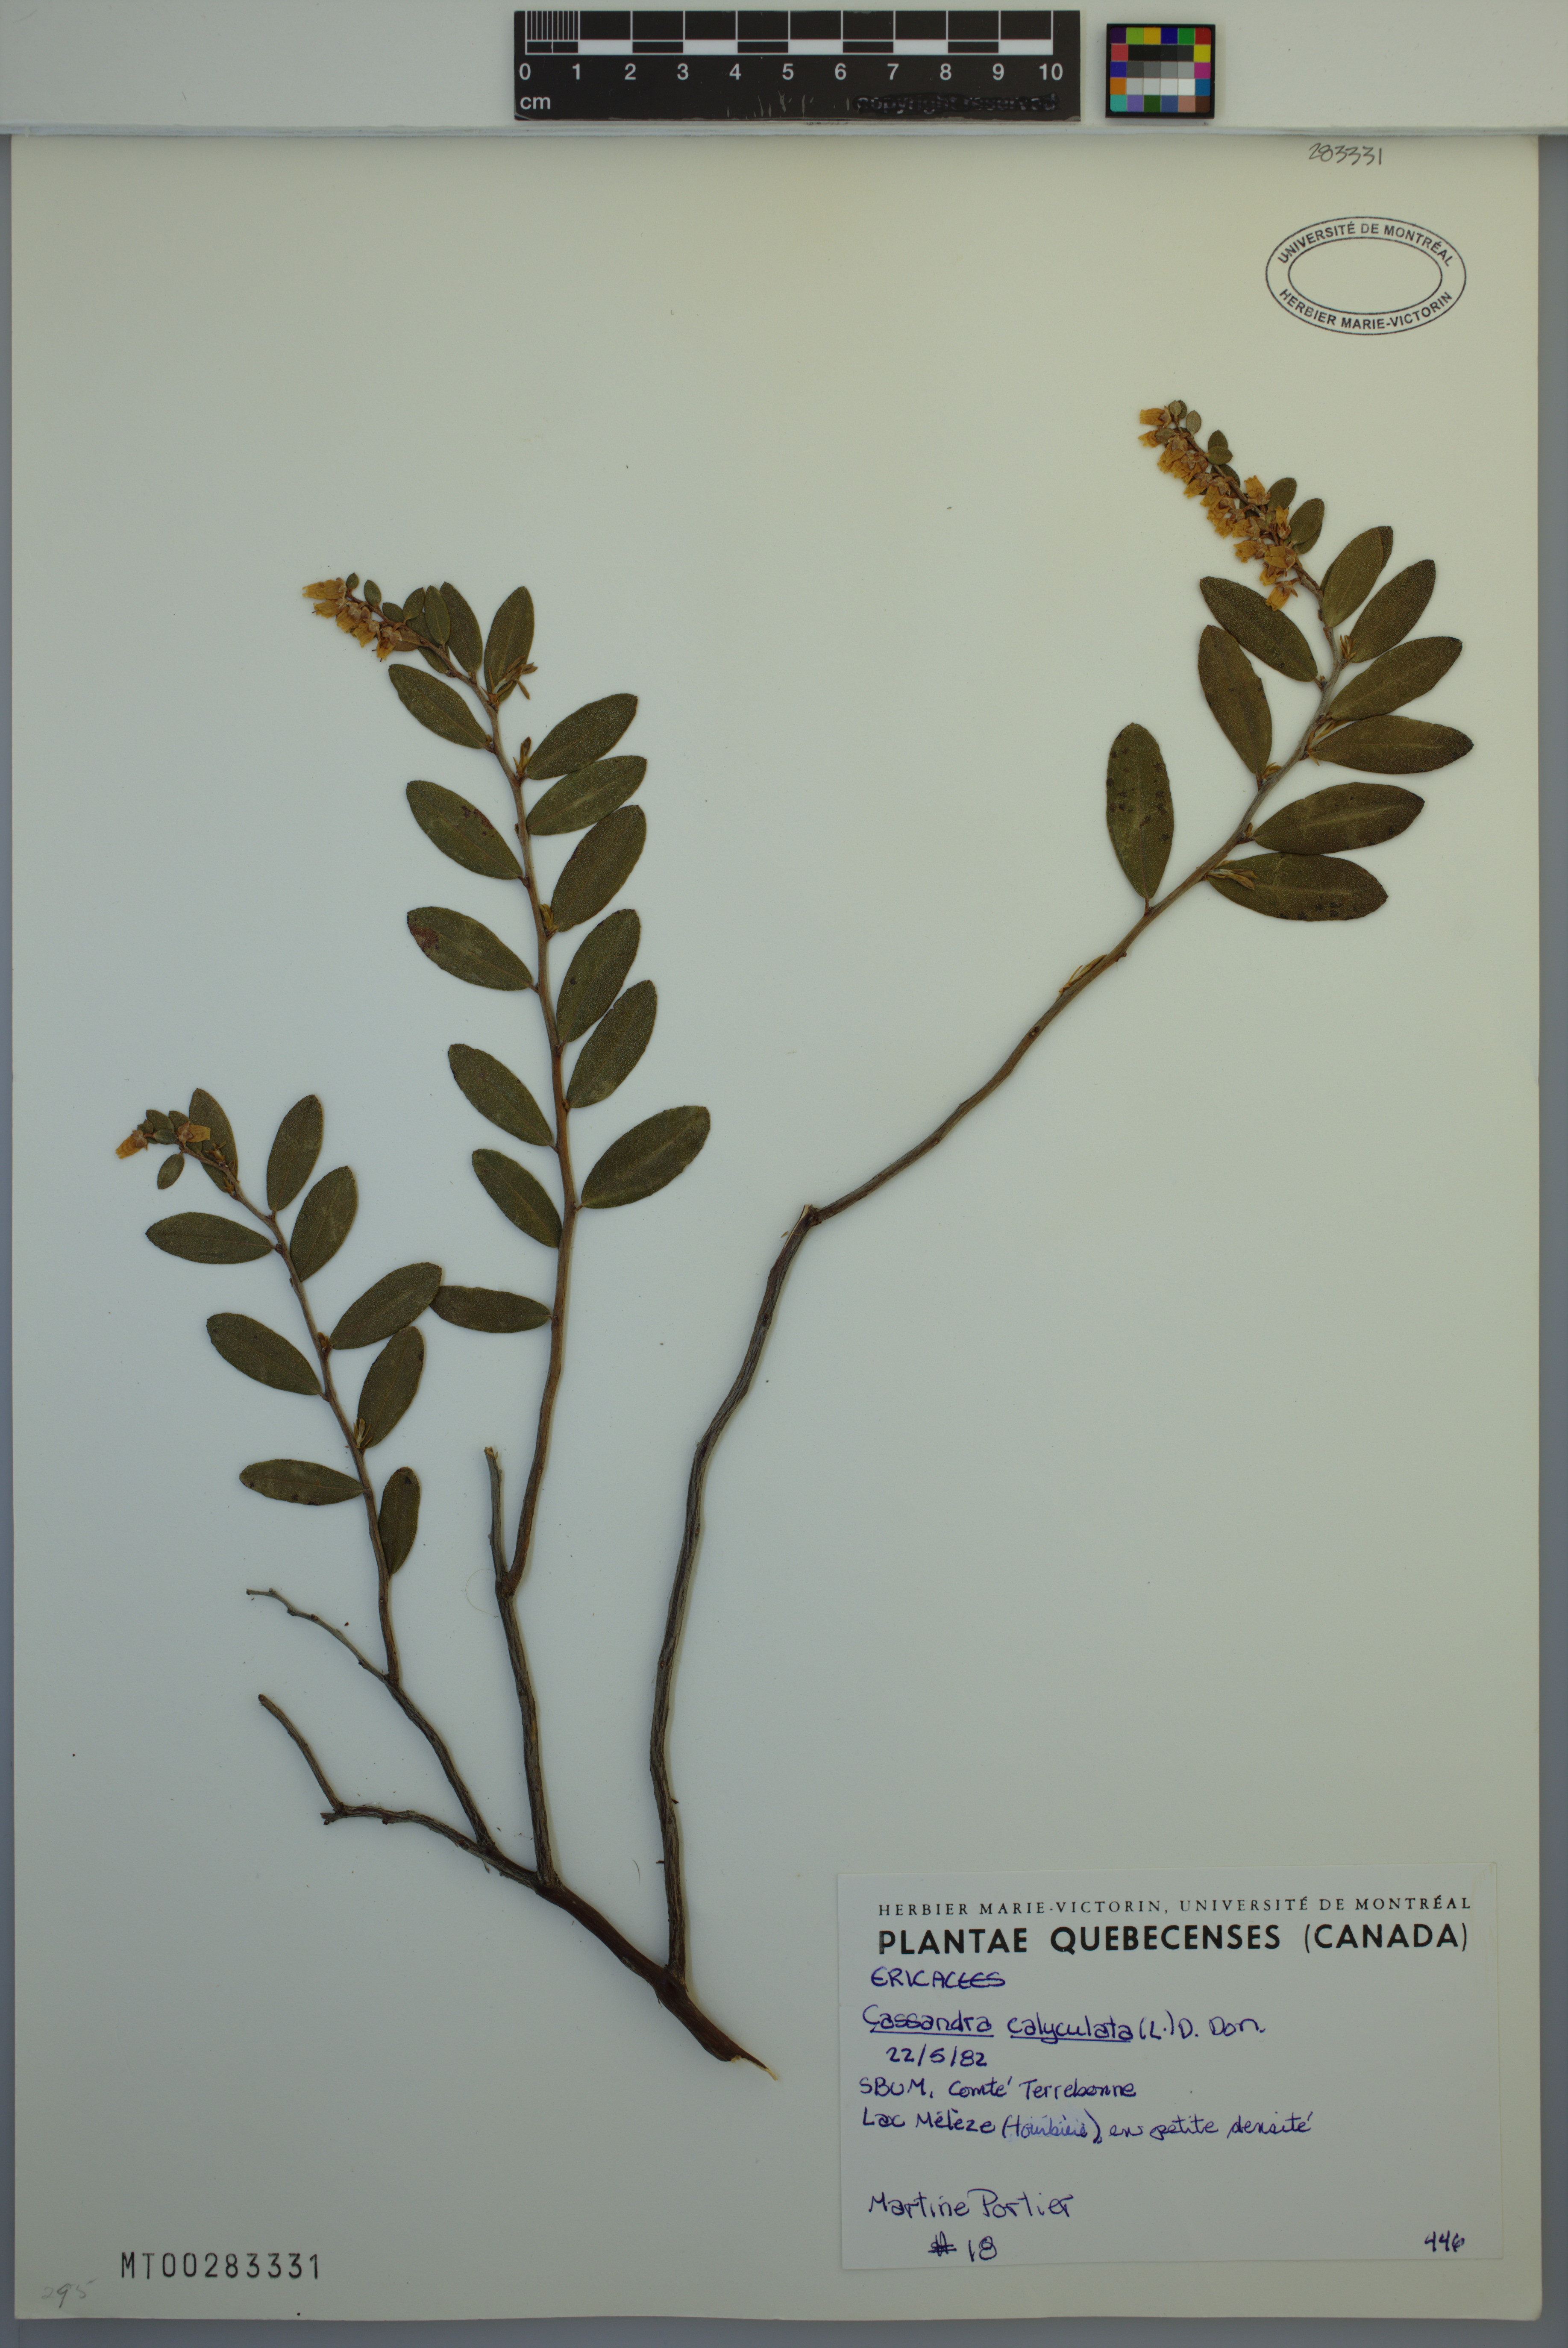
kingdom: Plantae
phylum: Tracheophyta
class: Magnoliopsida
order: Ericales
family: Ericaceae
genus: Chamaedaphne
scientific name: Chamaedaphne calyculata
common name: Leatherleaf
